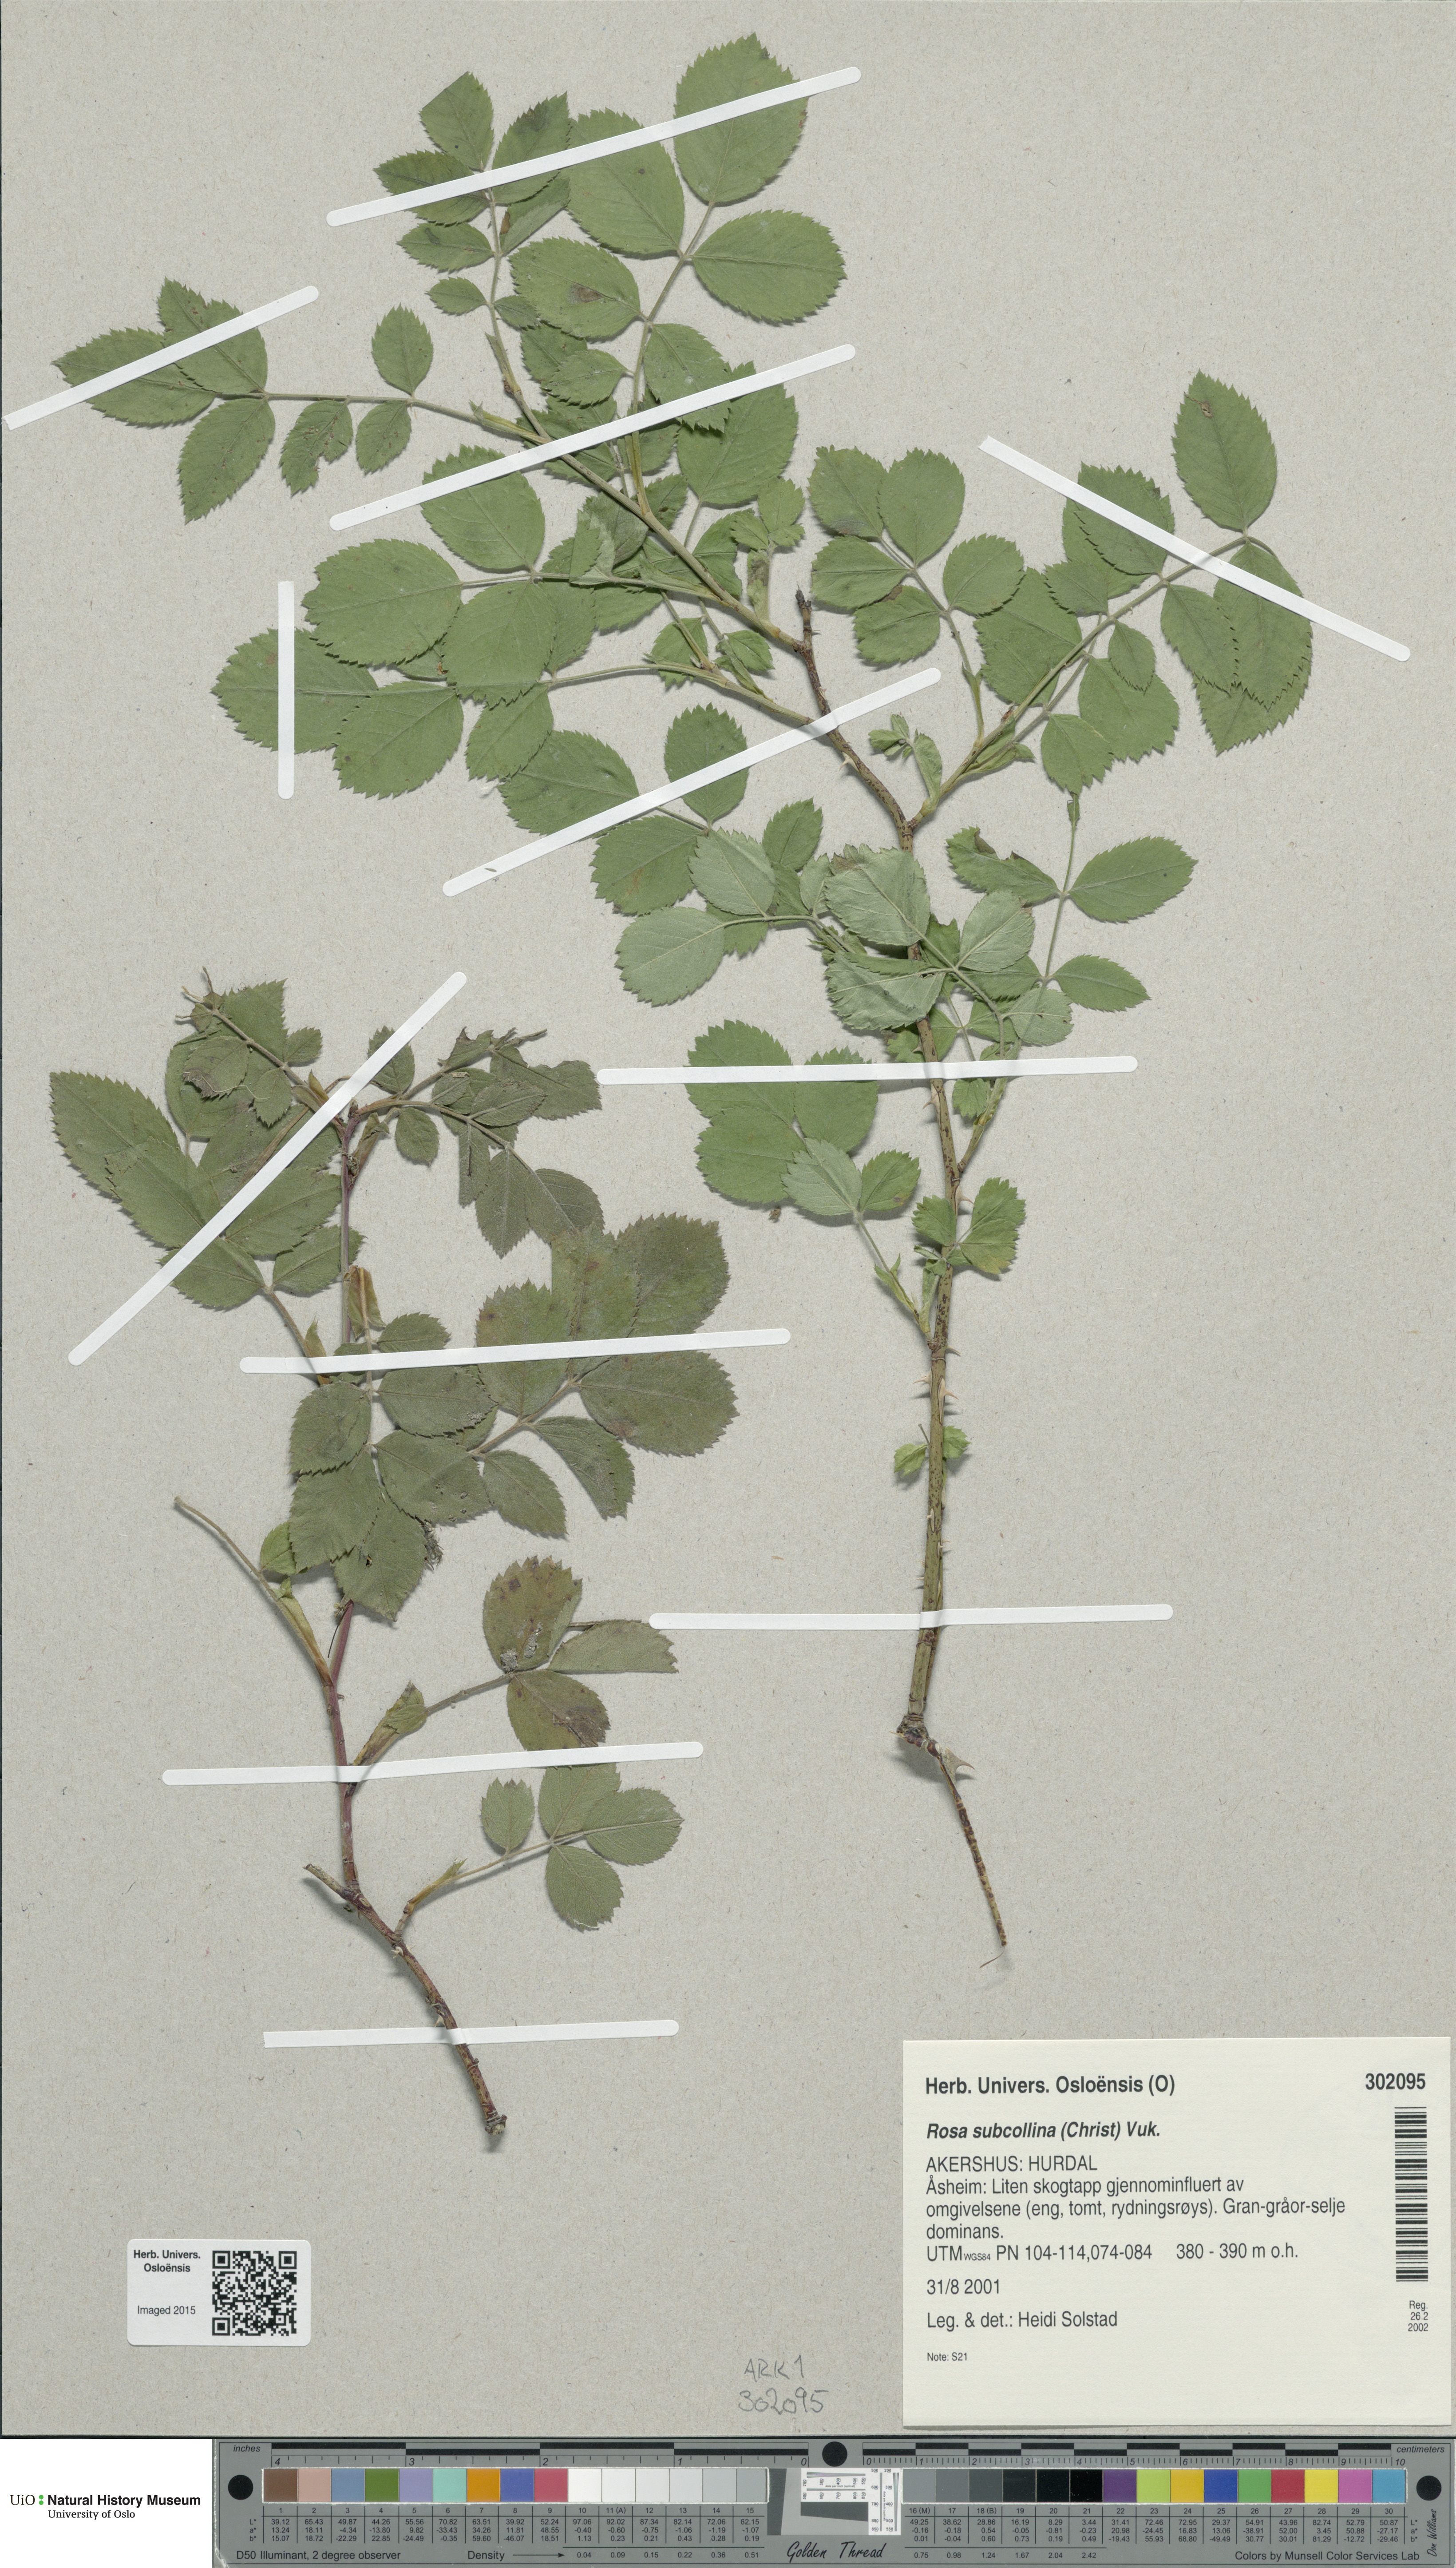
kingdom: Plantae
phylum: Tracheophyta
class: Magnoliopsida
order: Rosales
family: Rosaceae
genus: Rosa
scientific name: Rosa subcollina
